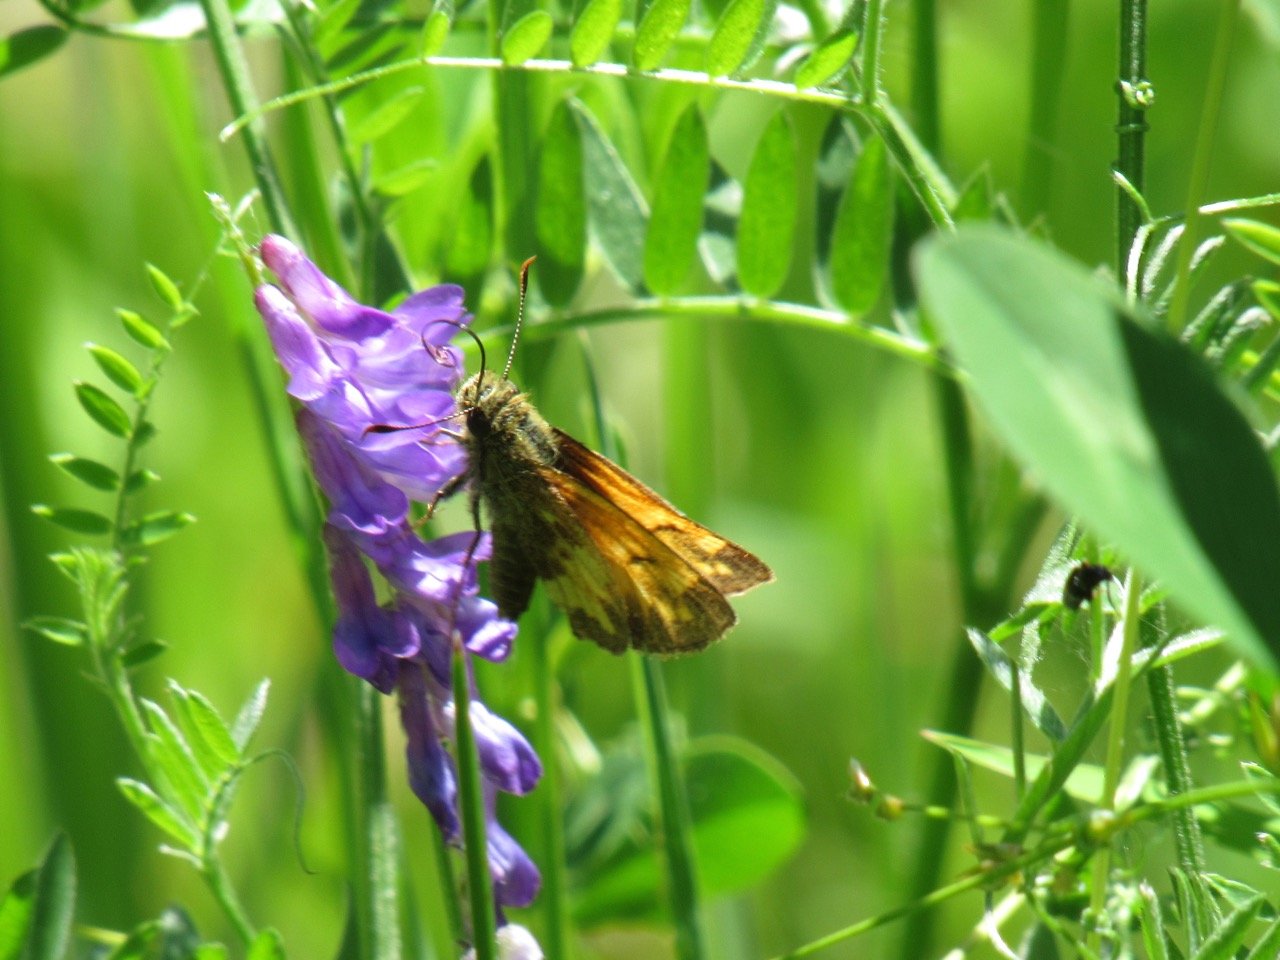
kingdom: Animalia
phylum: Arthropoda
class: Insecta
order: Lepidoptera
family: Hesperiidae
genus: Lon
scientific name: Lon hobomok
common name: Hobomok Skipper
